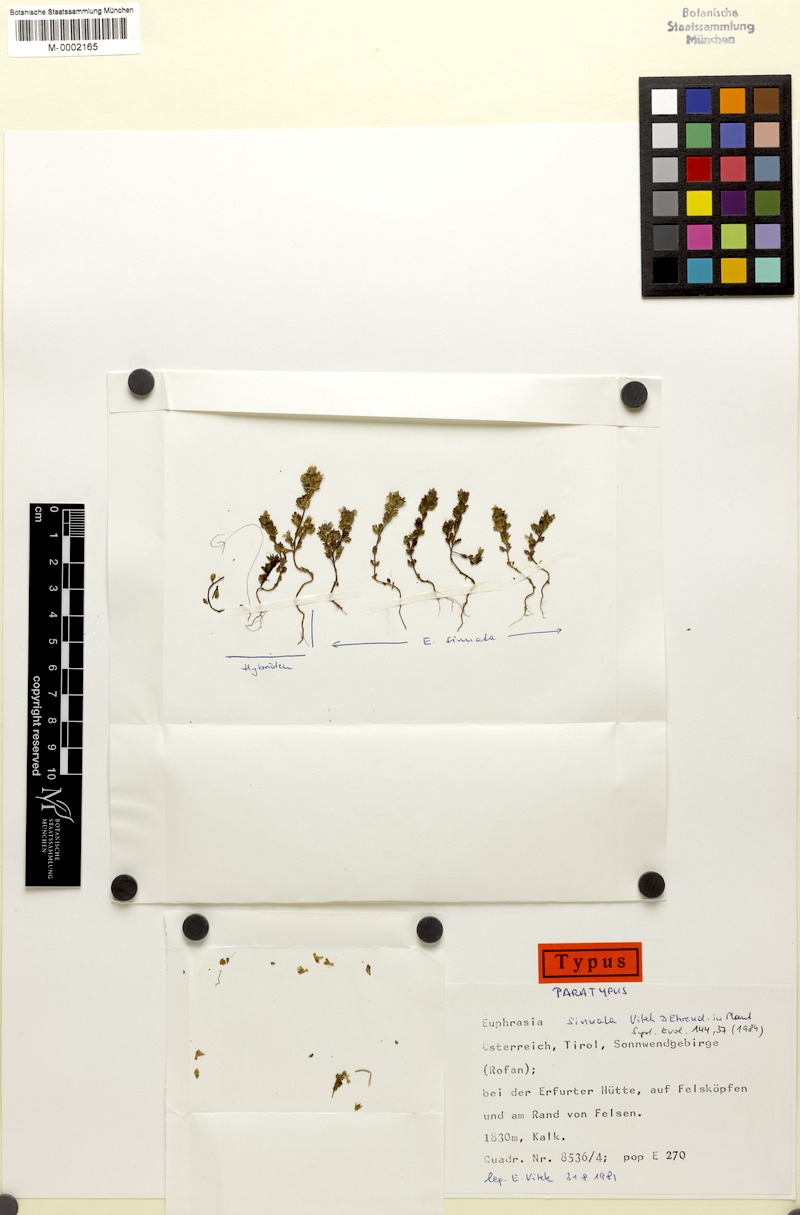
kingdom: Plantae
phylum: Tracheophyta
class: Magnoliopsida
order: Lamiales
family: Orobanchaceae
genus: Euphrasia
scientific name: Euphrasia sinuata
